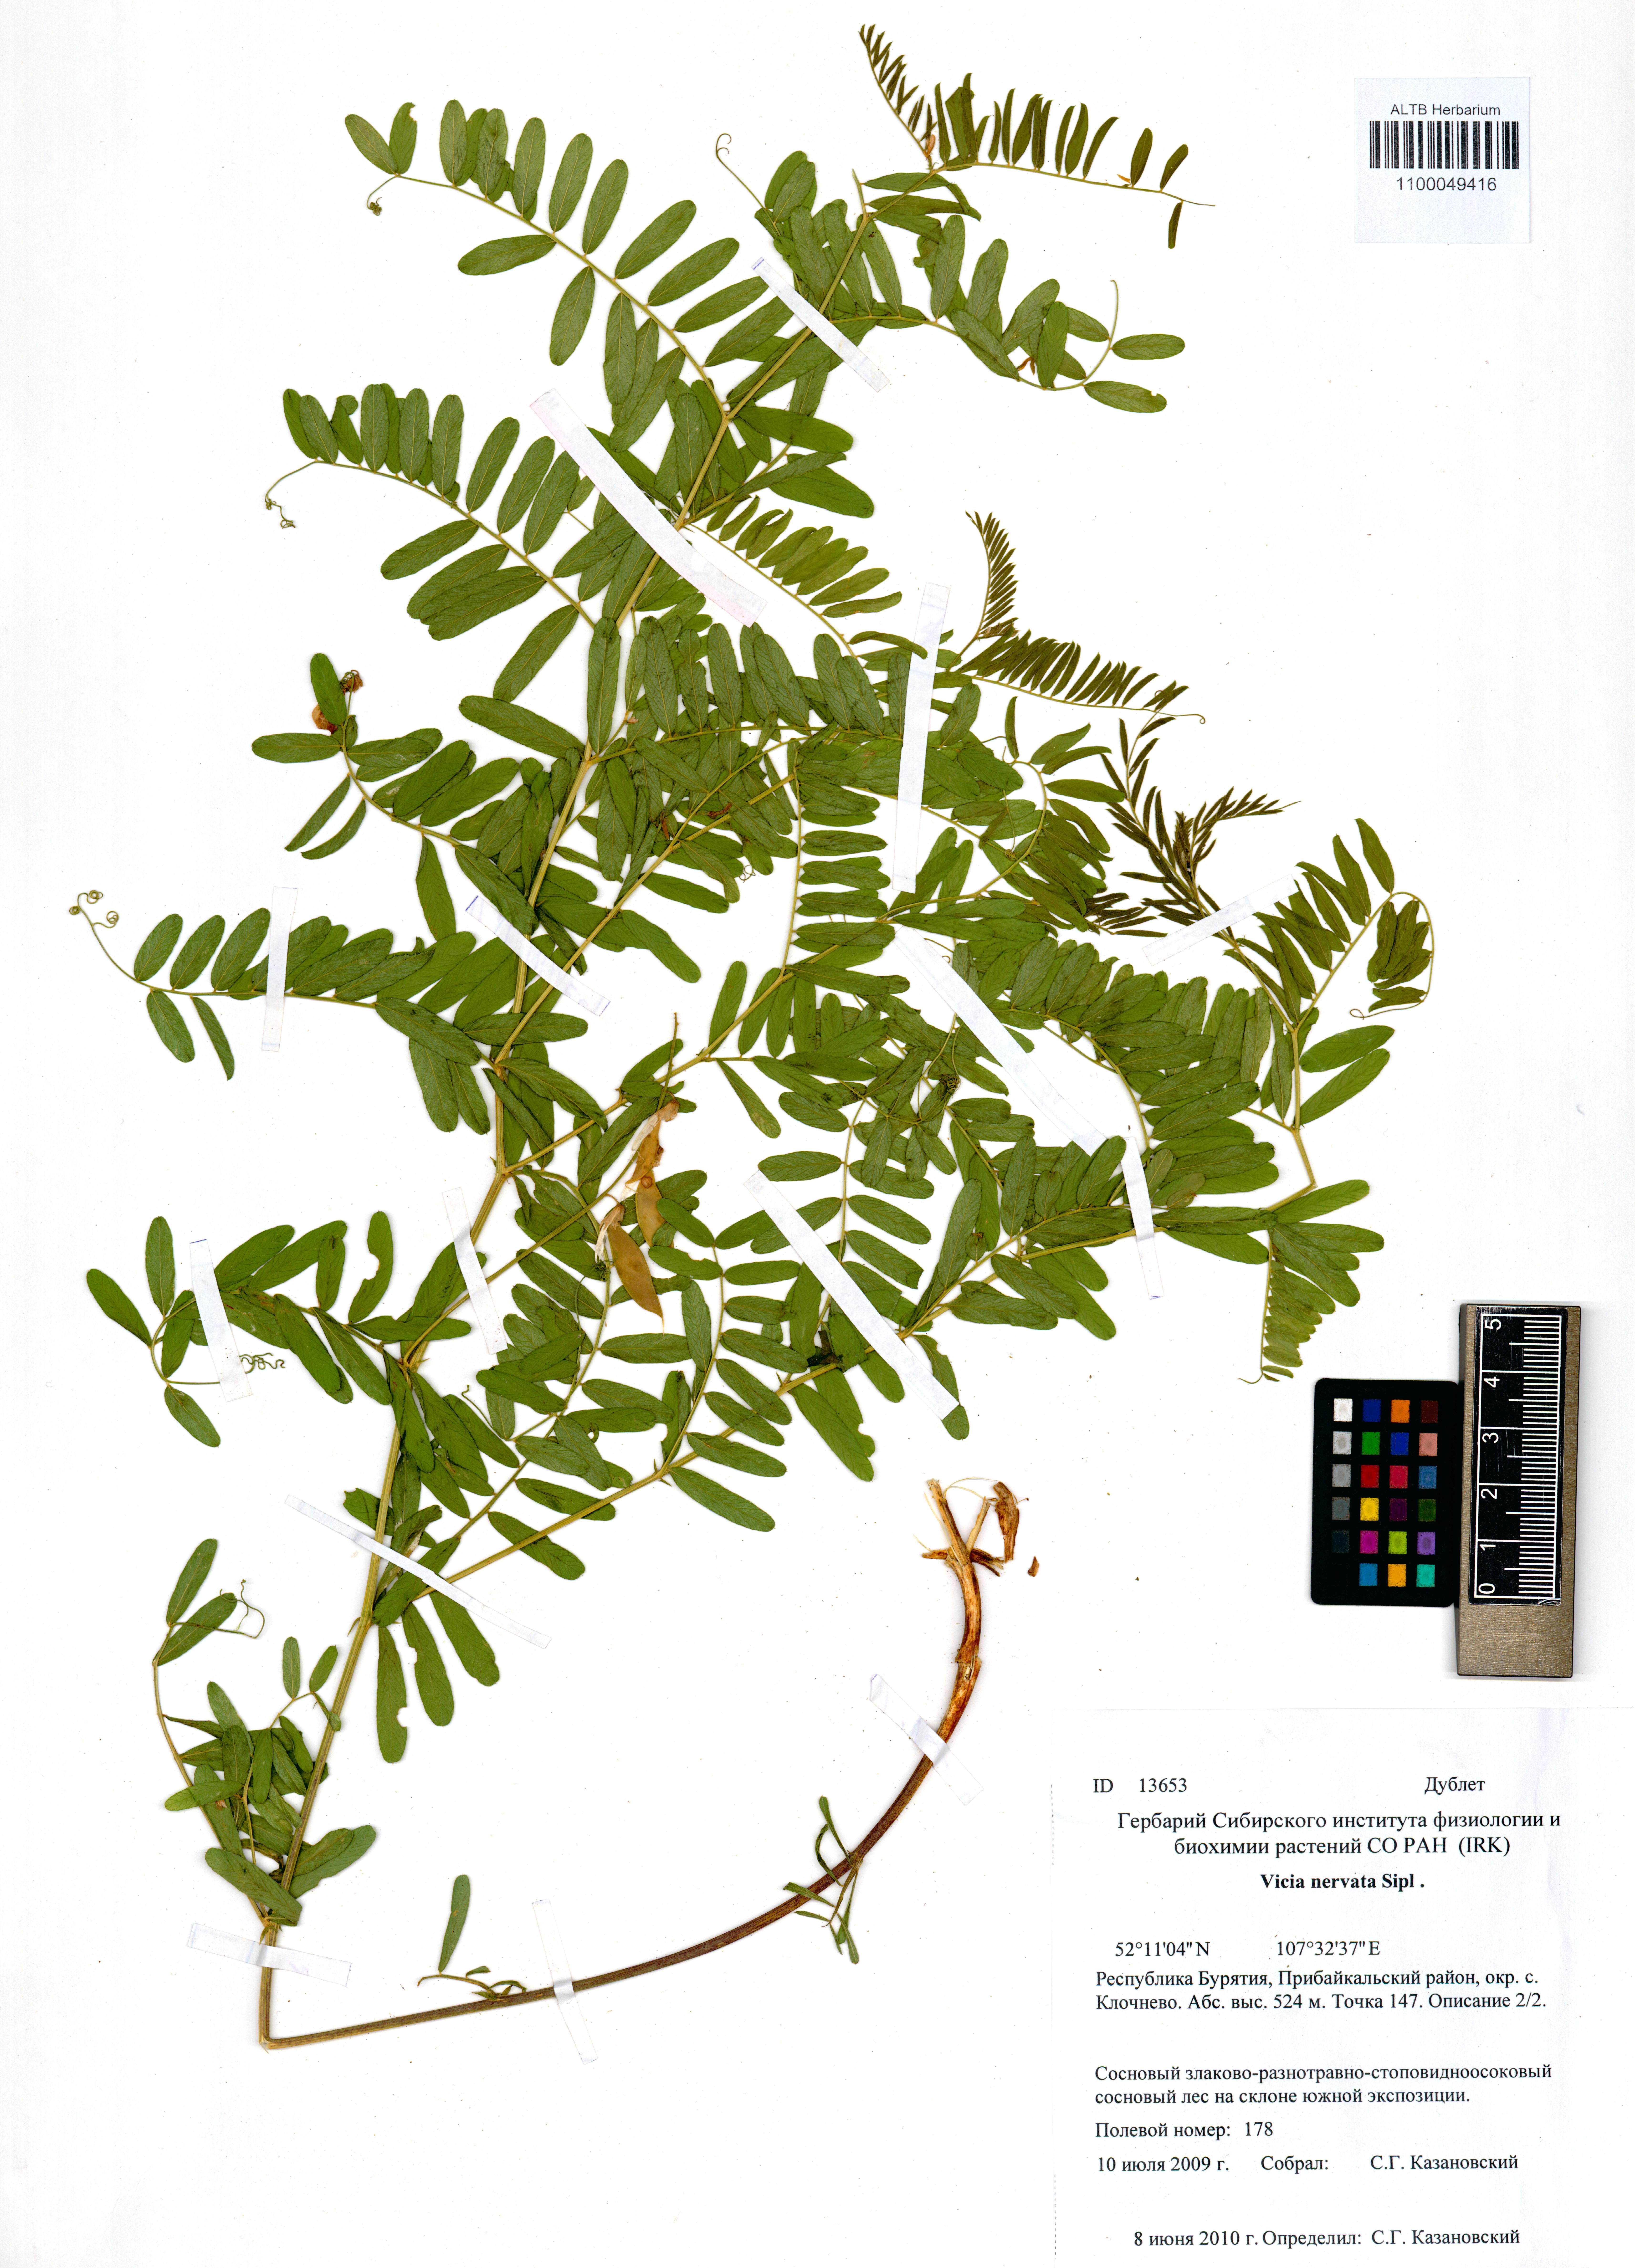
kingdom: Plantae
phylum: Tracheophyta
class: Magnoliopsida
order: Fabales
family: Fabaceae
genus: Vicia
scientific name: Vicia multicaulis
